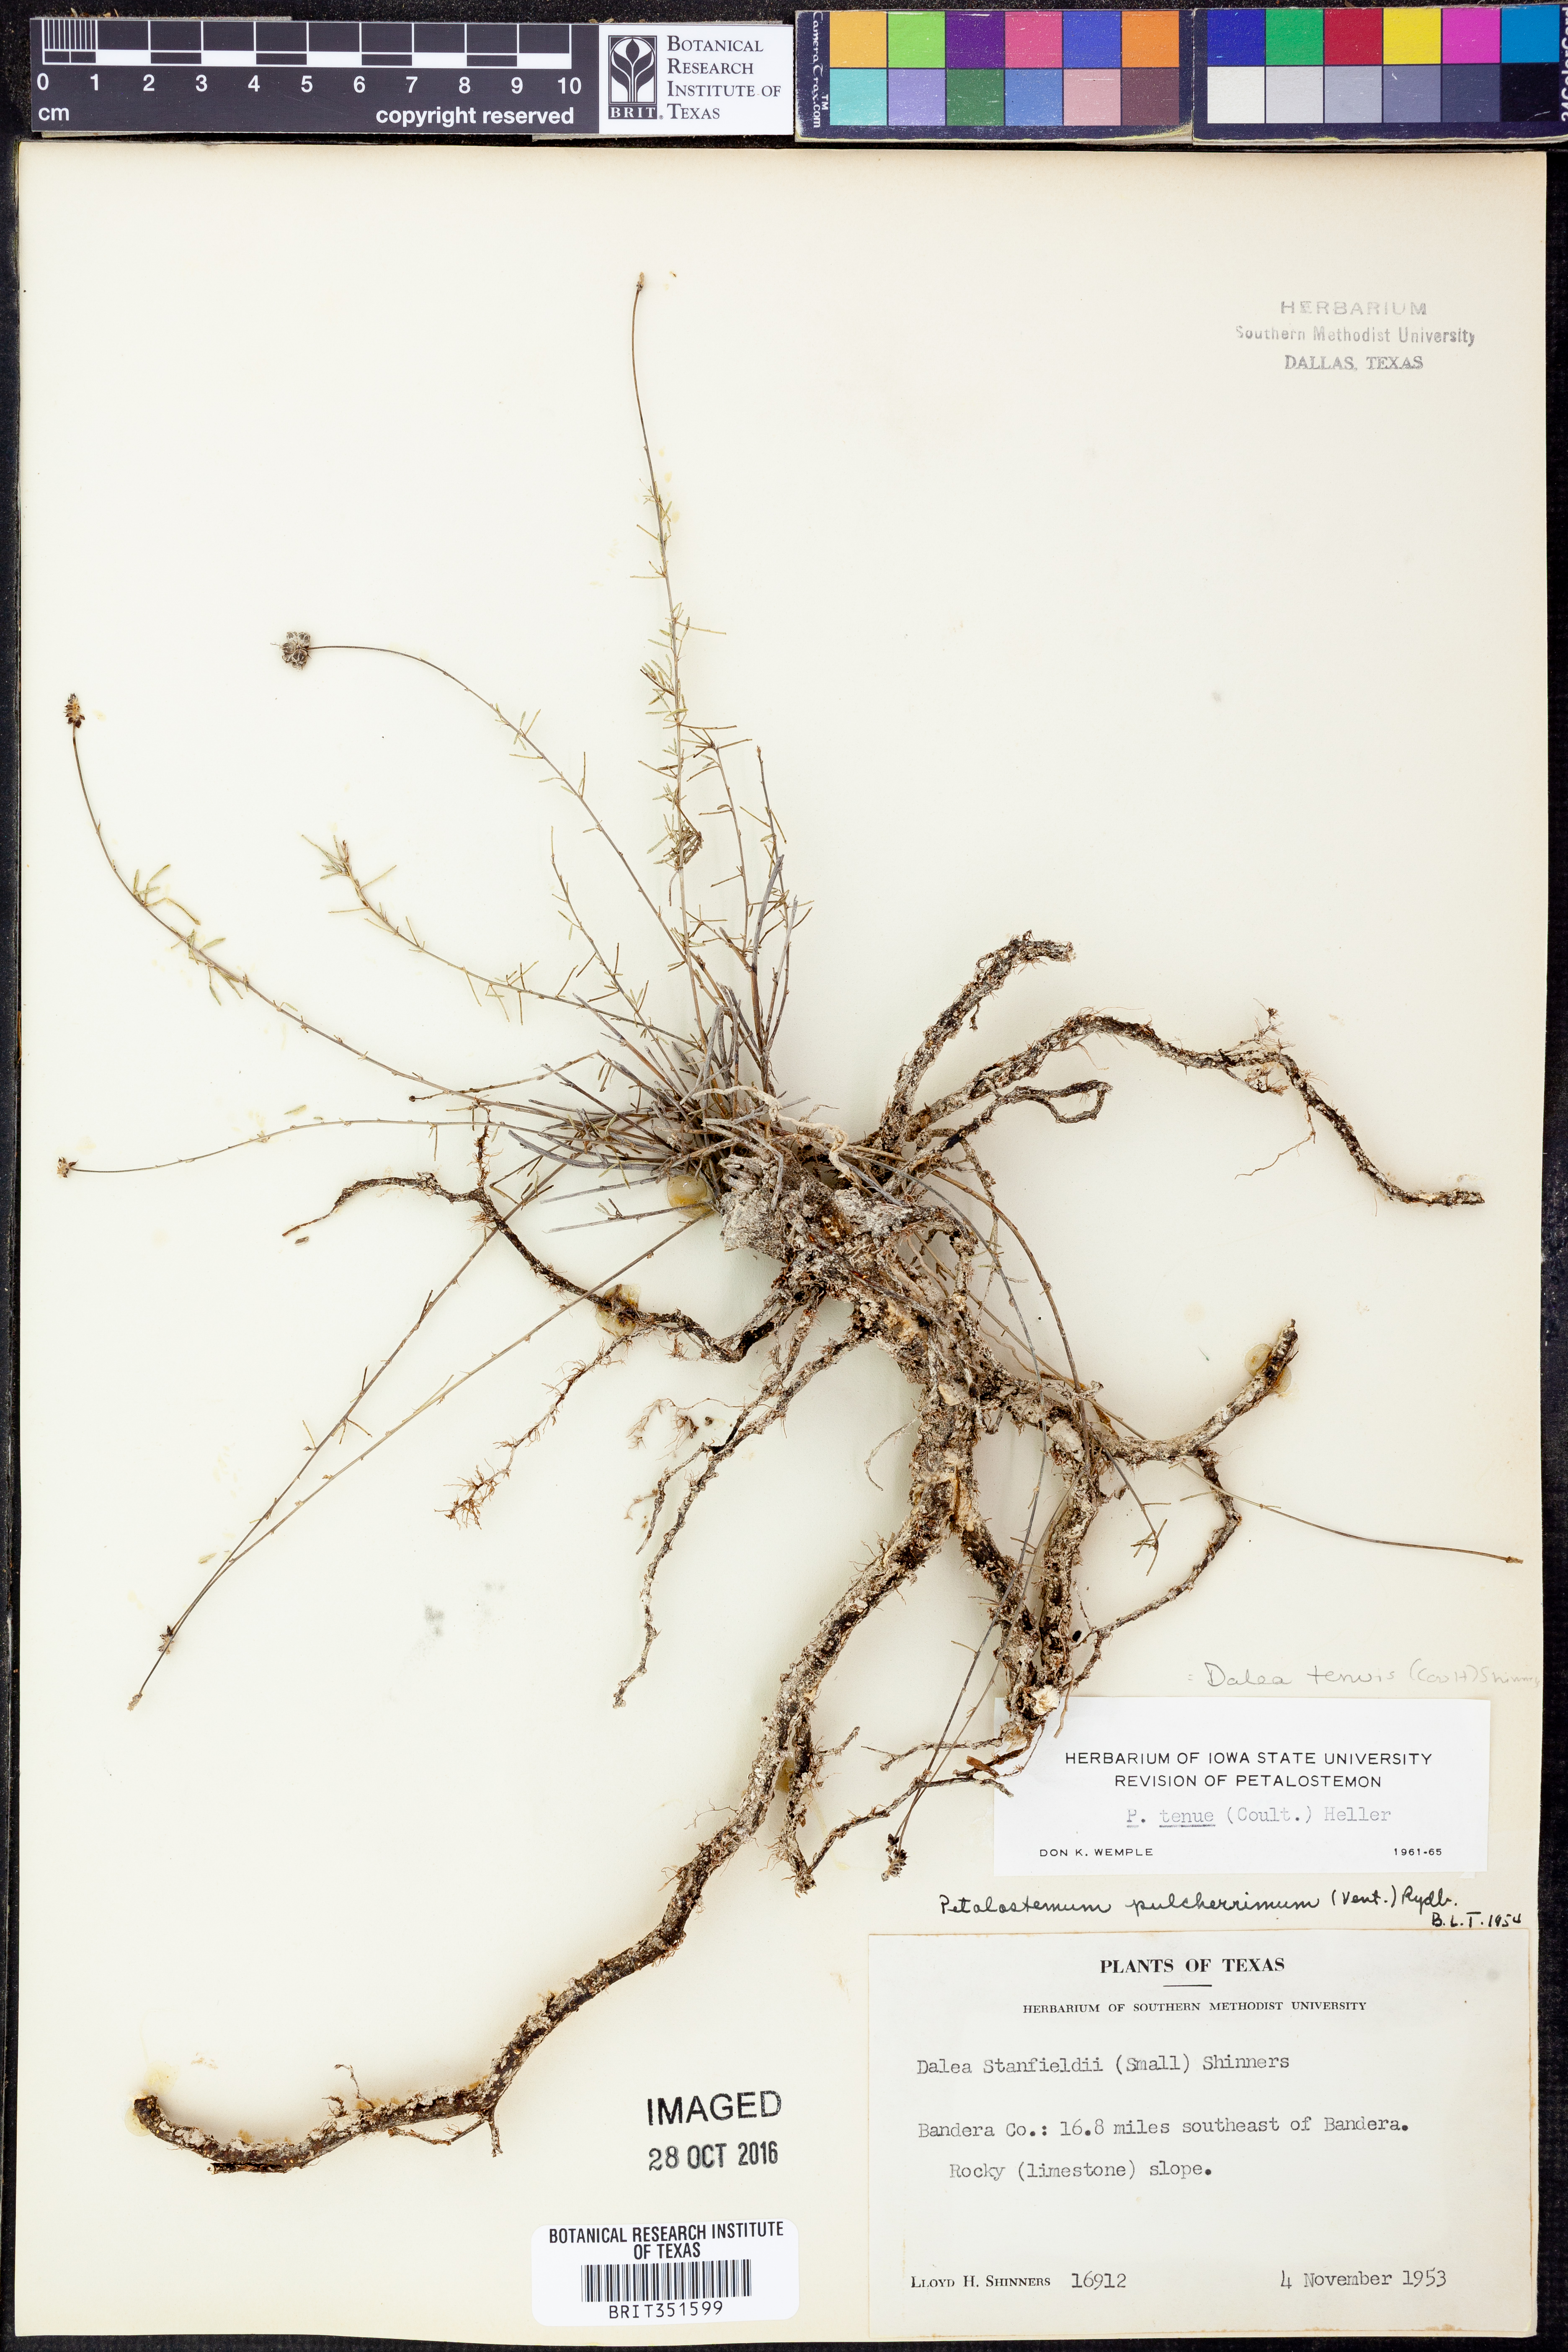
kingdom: Plantae
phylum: Tracheophyta
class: Magnoliopsida
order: Fabales
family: Fabaceae
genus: Dalea
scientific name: Dalea tenuis
